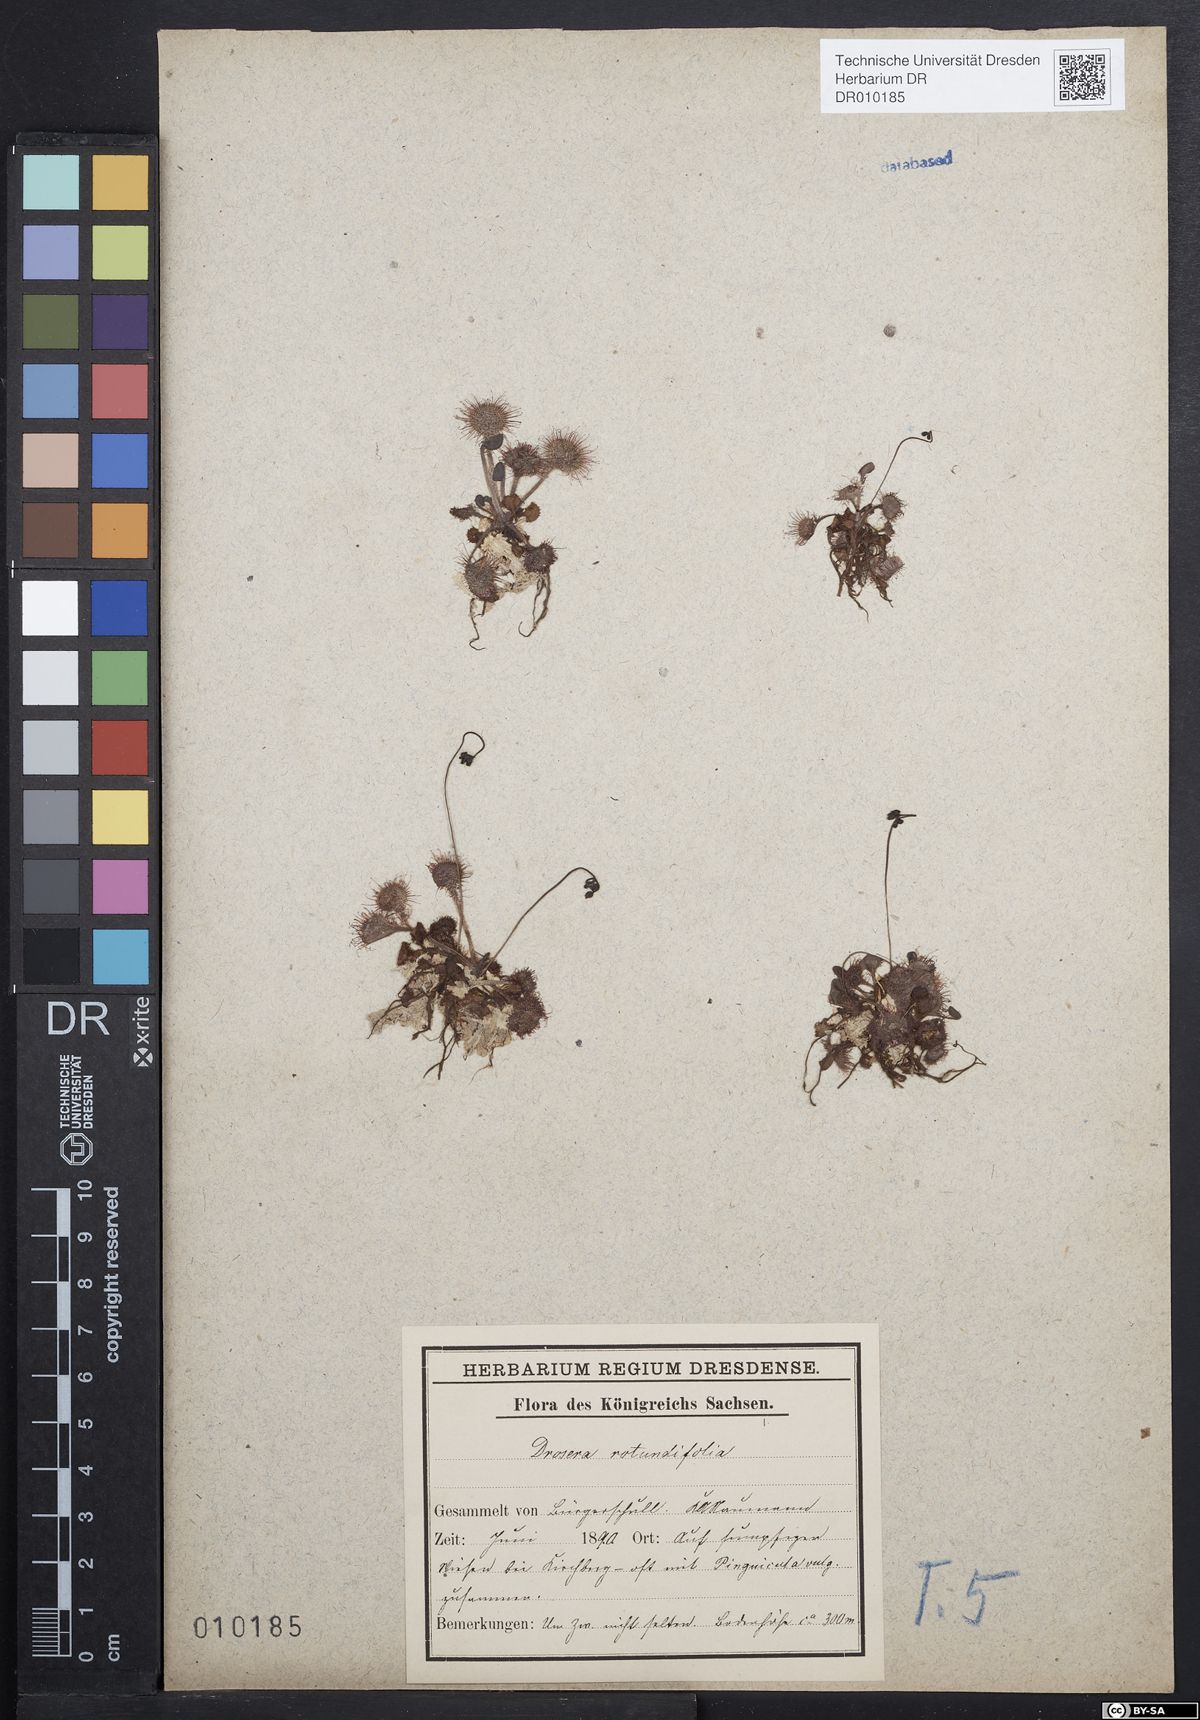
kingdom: Plantae
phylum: Tracheophyta
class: Magnoliopsida
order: Caryophyllales
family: Droseraceae
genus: Drosera
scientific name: Drosera rotundifolia
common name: Round-leaved sundew
